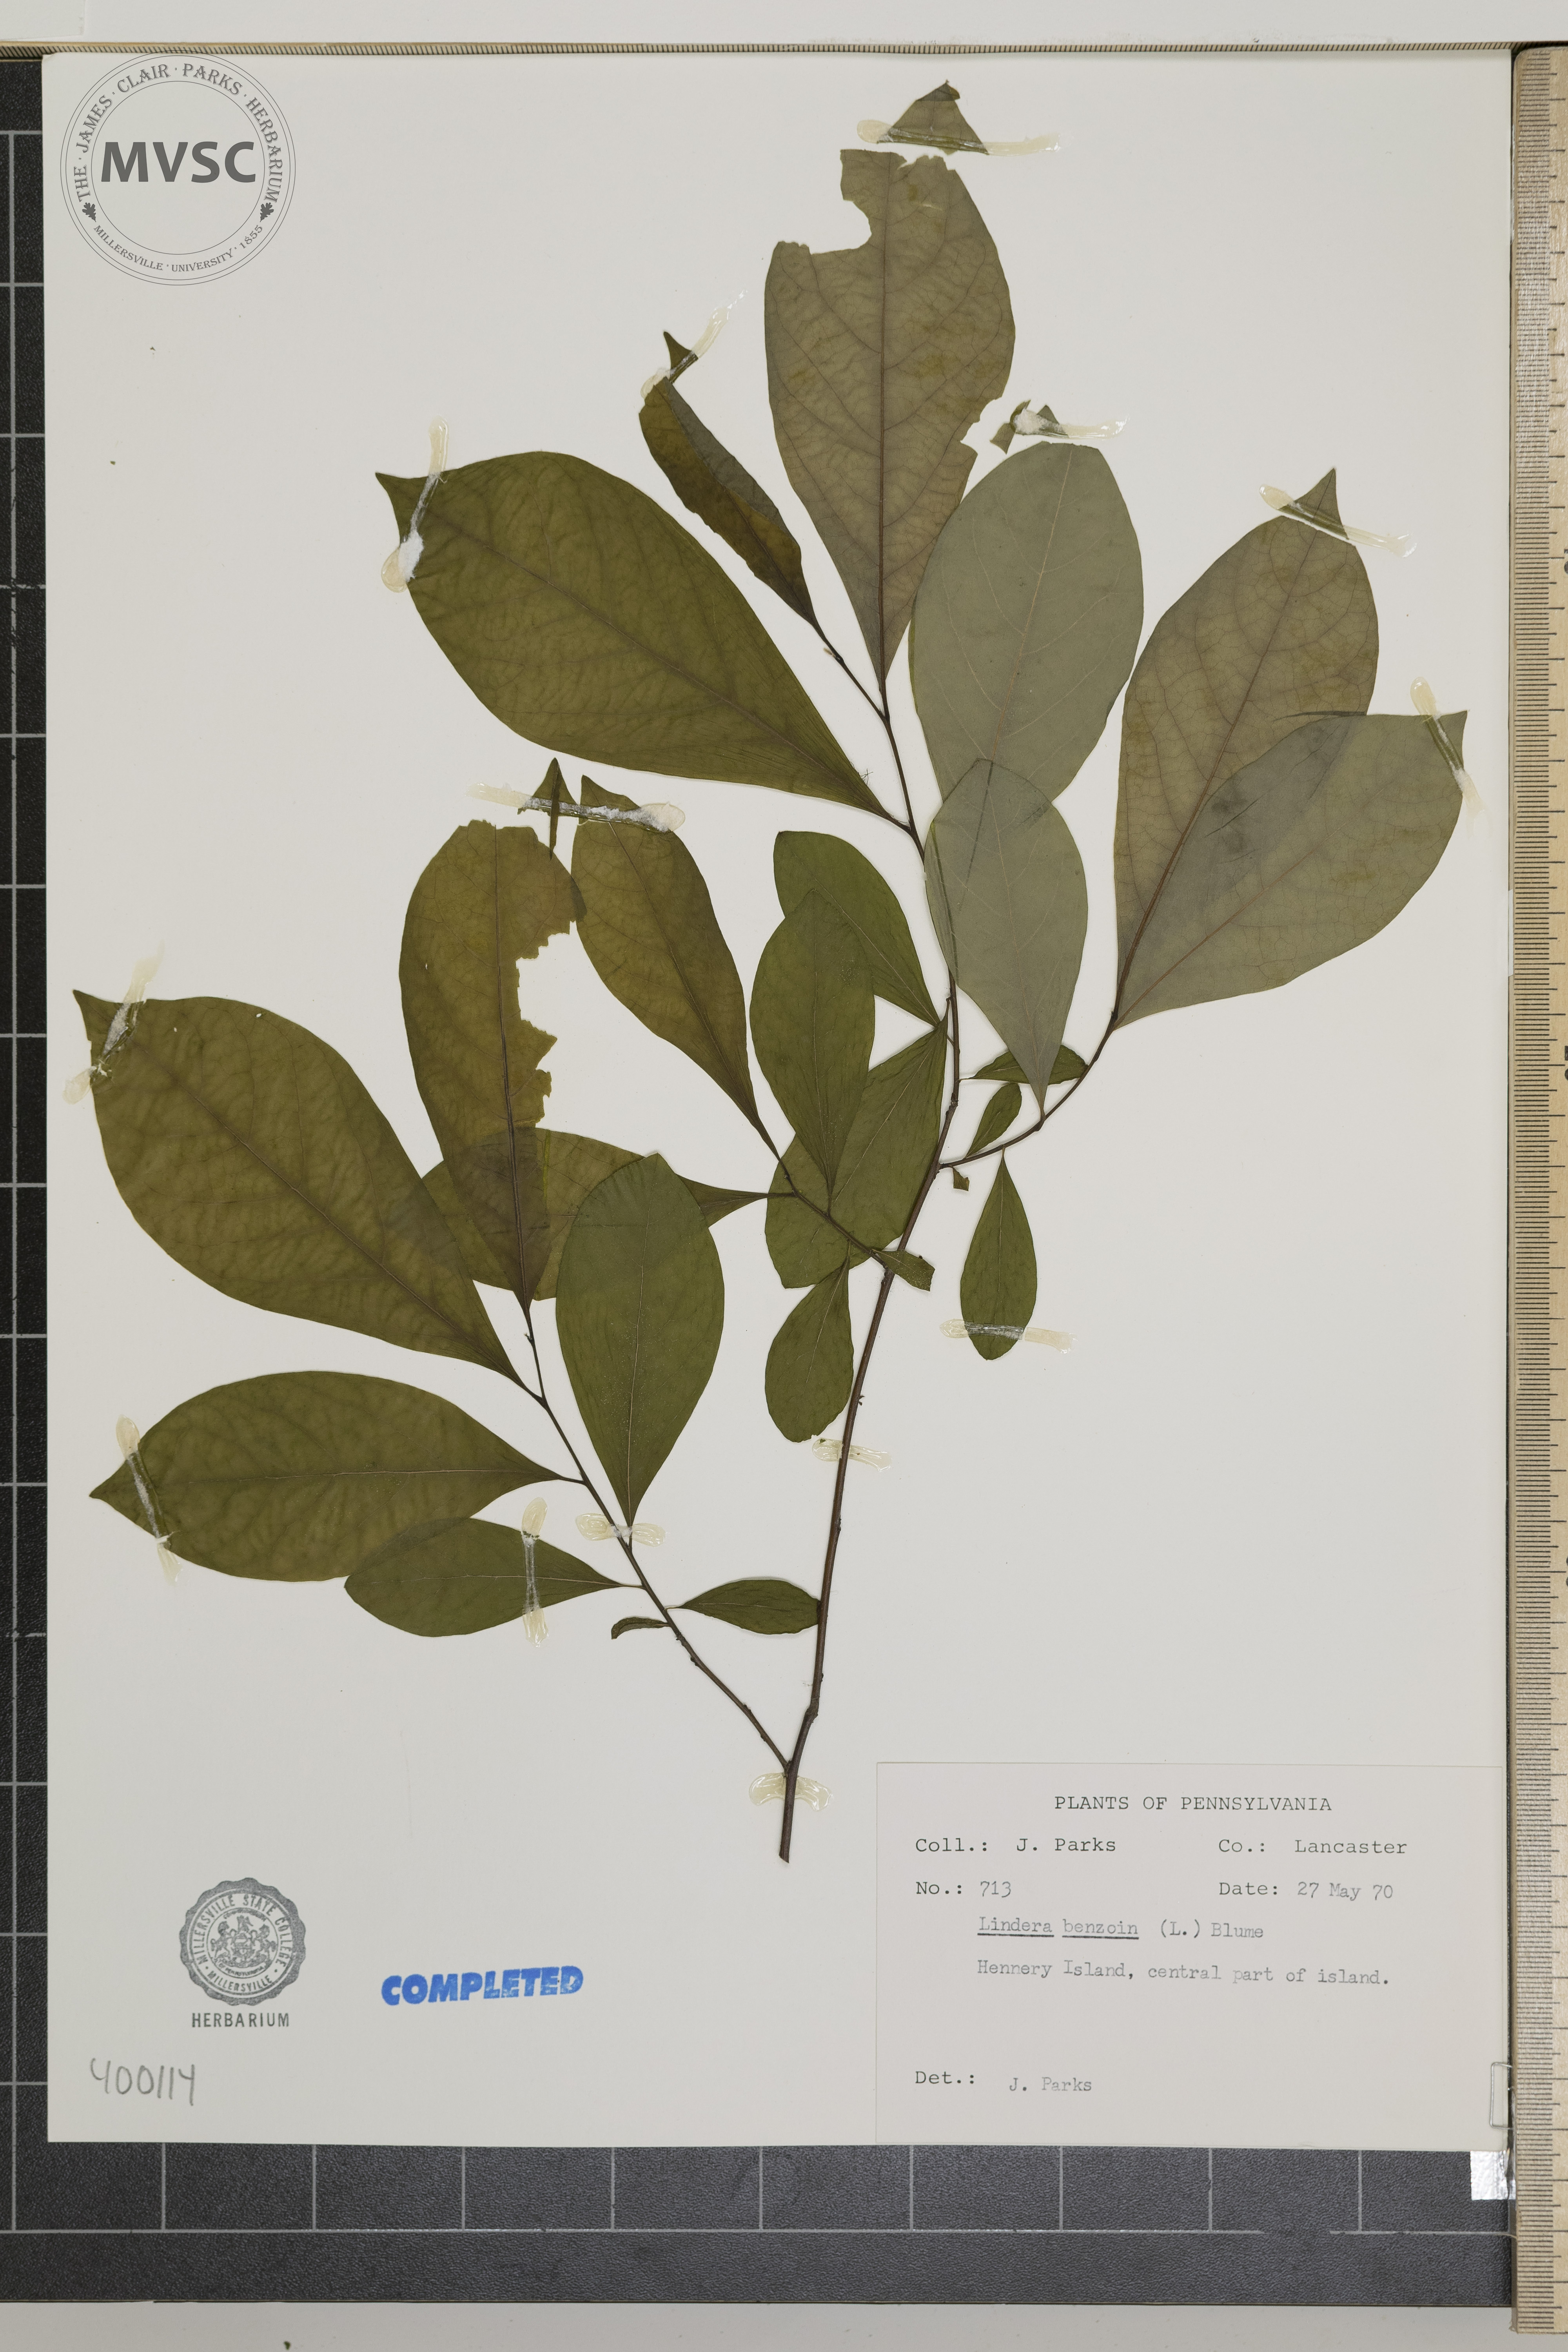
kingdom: Plantae
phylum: Tracheophyta
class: Magnoliopsida
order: Laurales
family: Lauraceae
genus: Lindera
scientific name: Lindera benzoin
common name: spicebush
